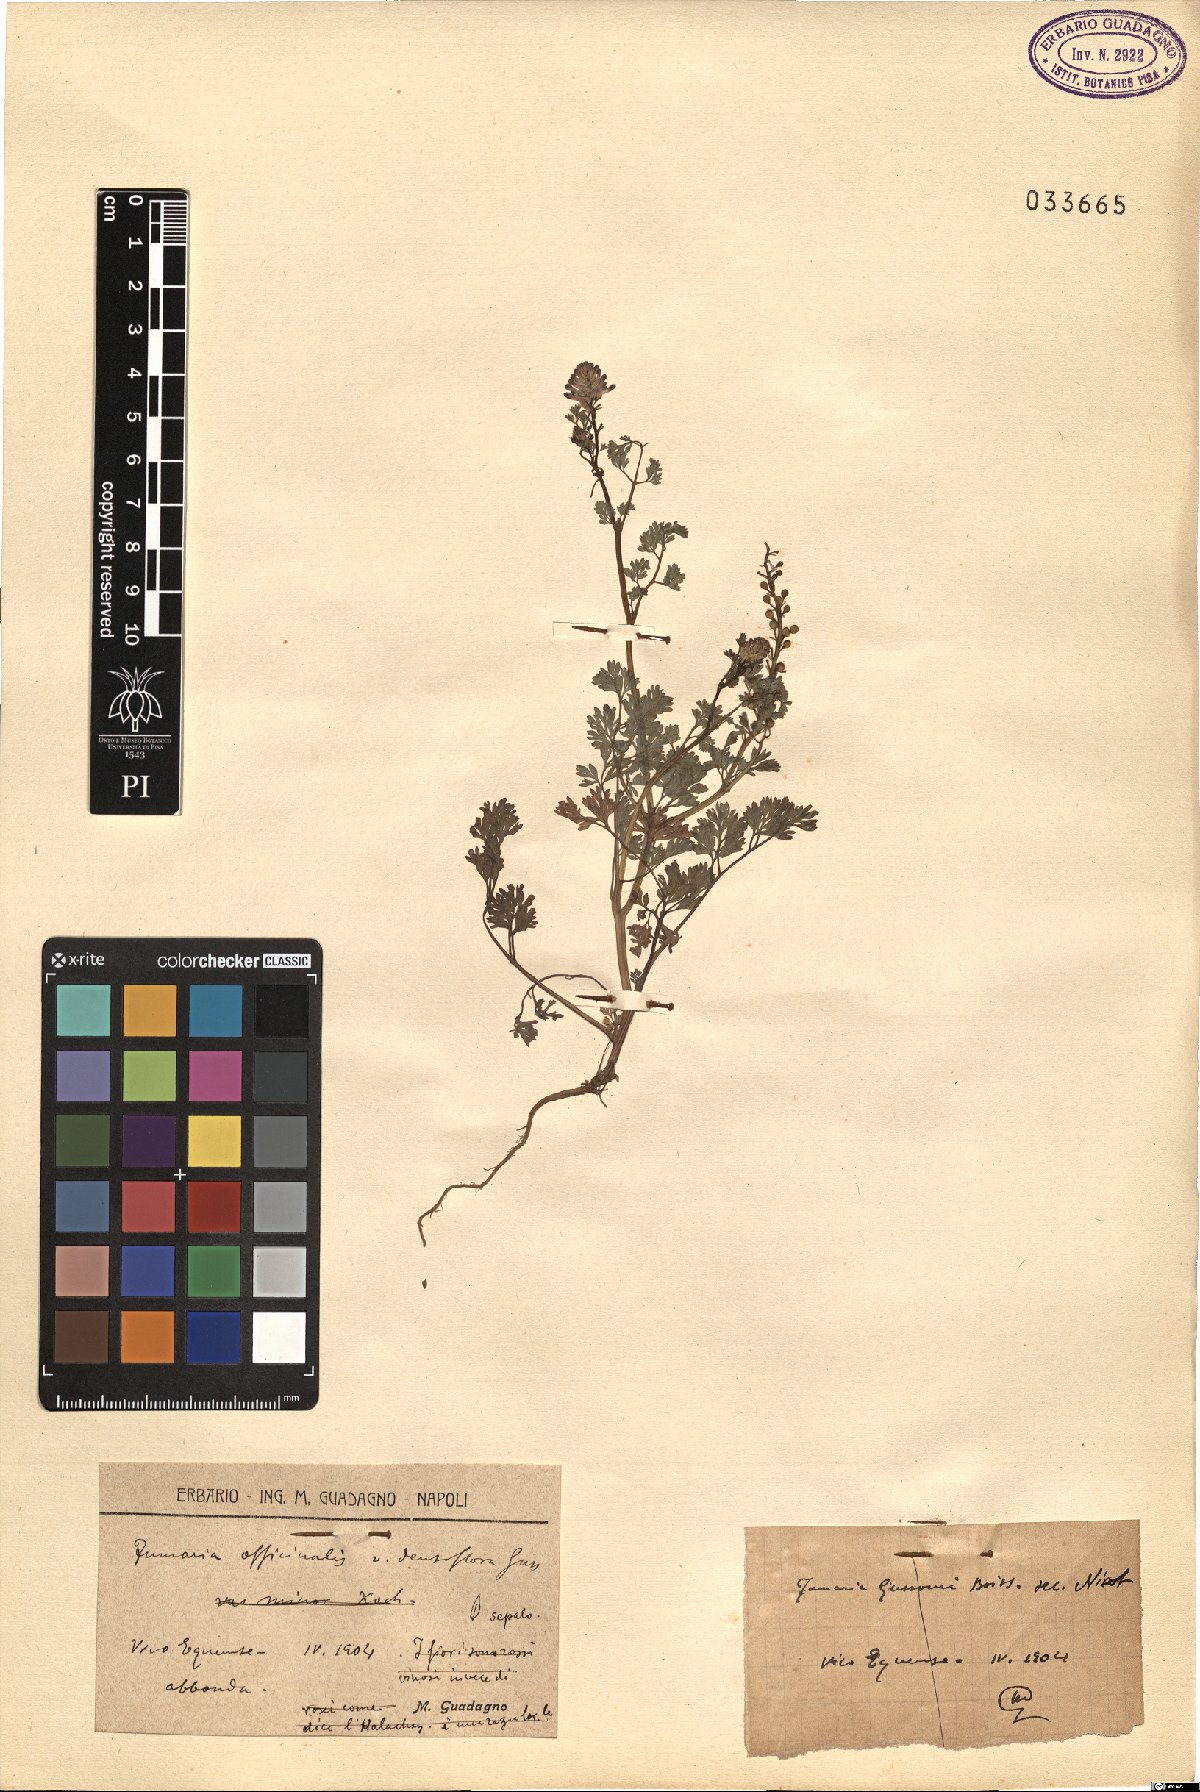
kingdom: Plantae
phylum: Tracheophyta
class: Magnoliopsida
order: Ranunculales
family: Papaveraceae
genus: Fumaria
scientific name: Fumaria densiflora
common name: Dense-flowered fumitory
